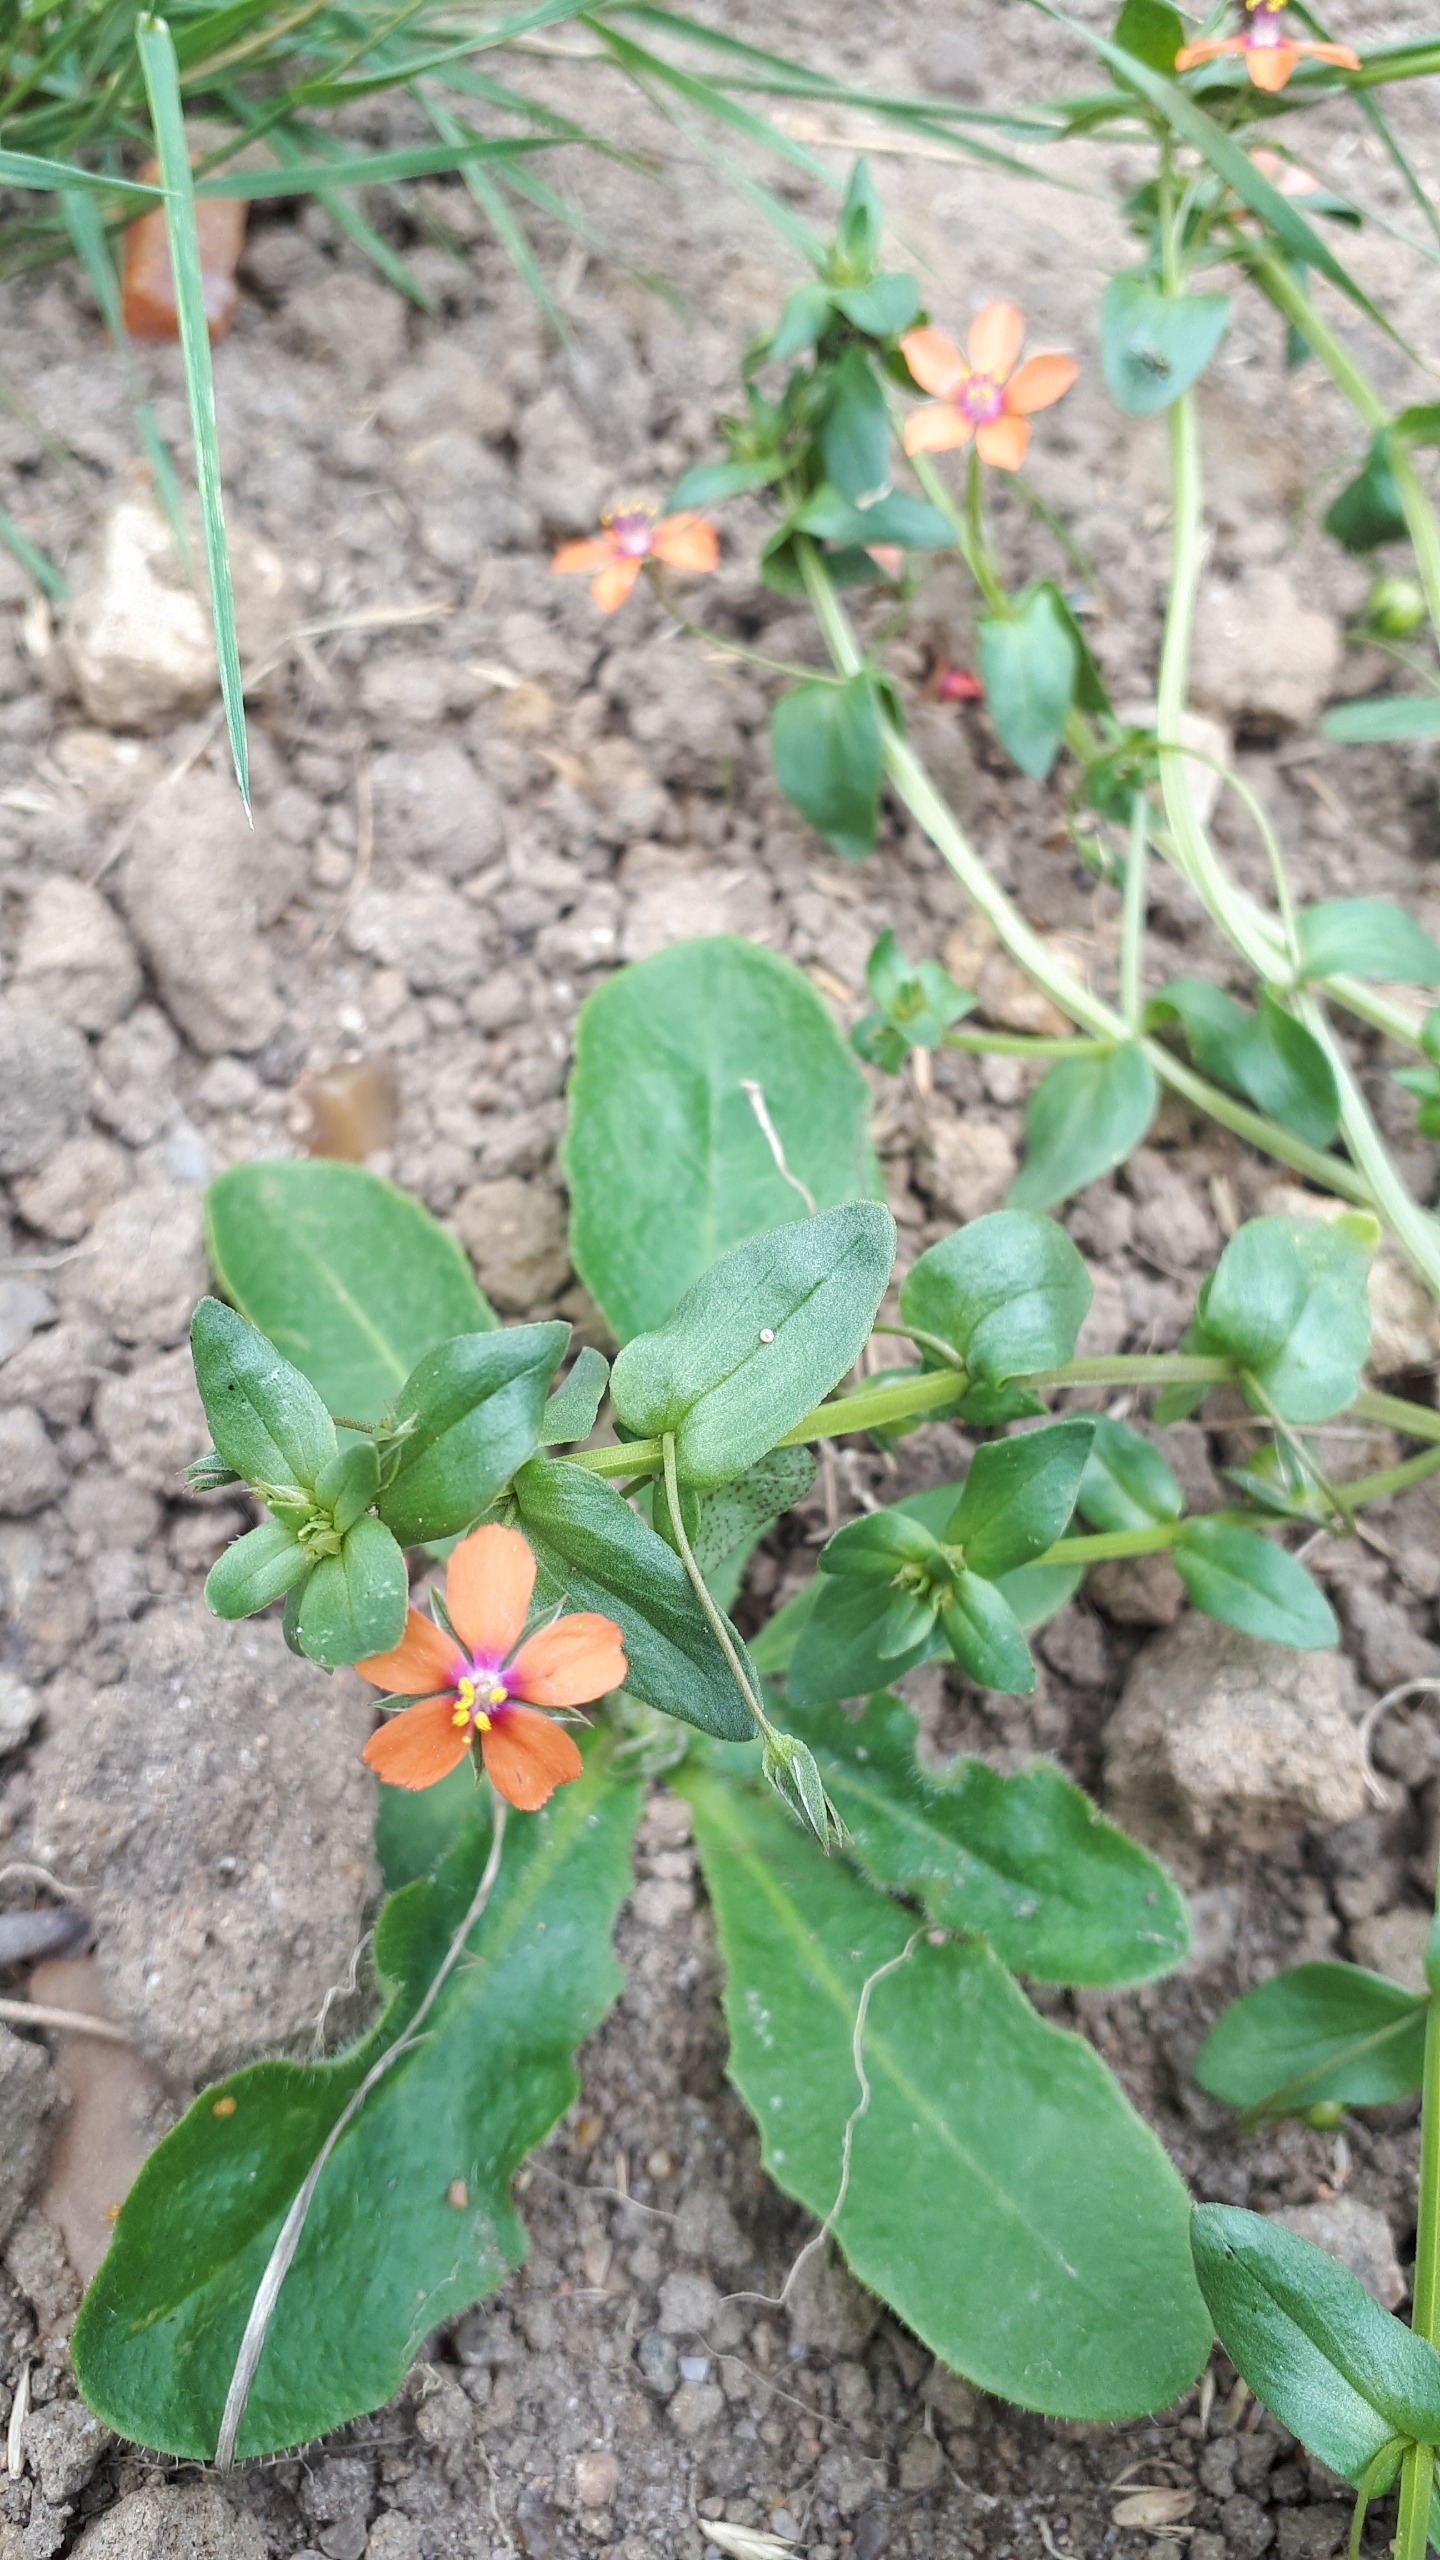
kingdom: Plantae
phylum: Tracheophyta
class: Magnoliopsida
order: Ericales
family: Primulaceae
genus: Lysimachia
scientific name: Lysimachia arvensis
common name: Rød arve
